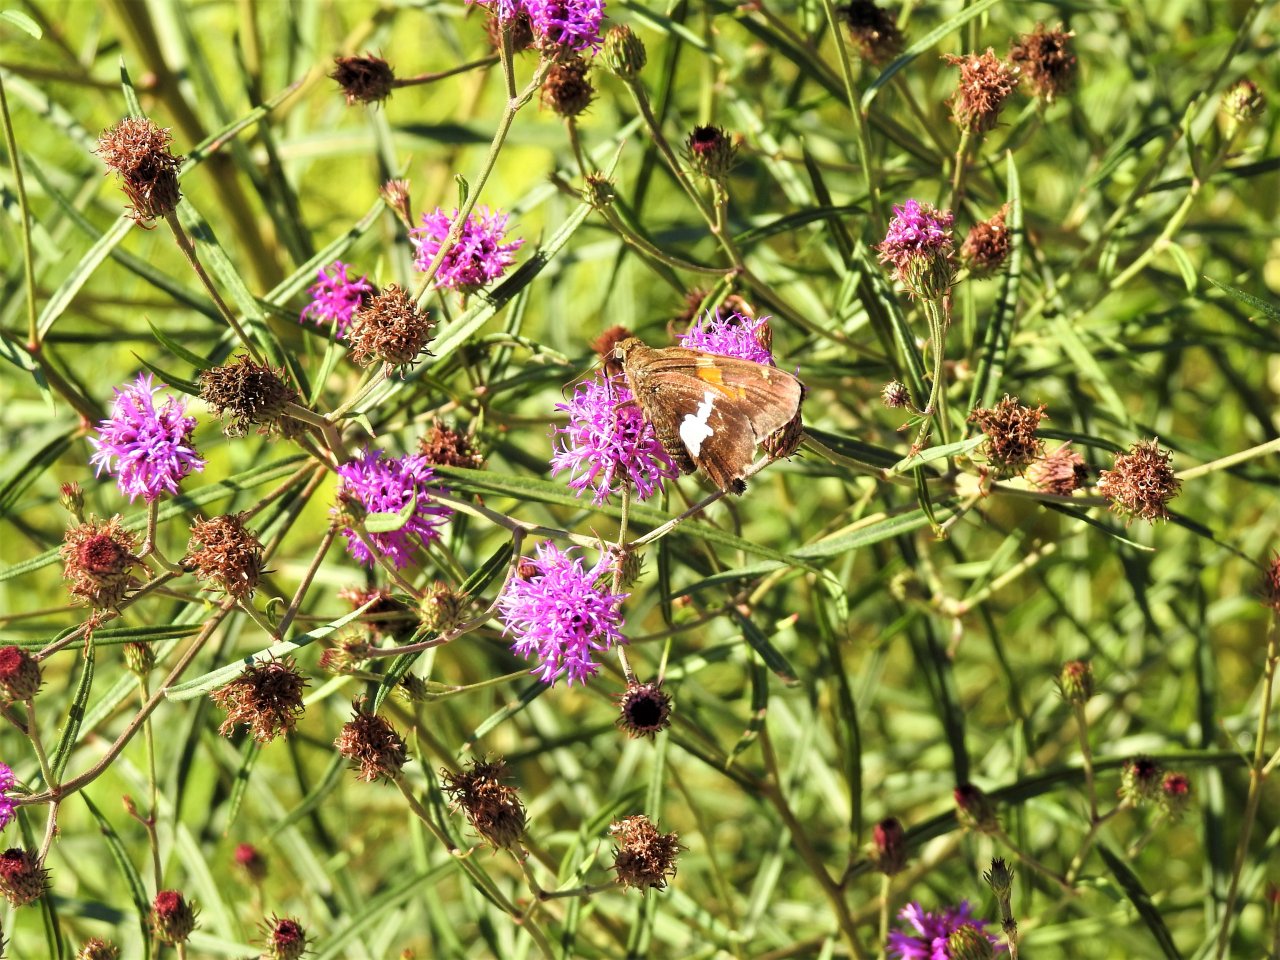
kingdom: Animalia
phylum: Arthropoda
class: Insecta
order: Lepidoptera
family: Hesperiidae
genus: Epargyreus
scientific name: Epargyreus clarus
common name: Silver-spotted Skipper
